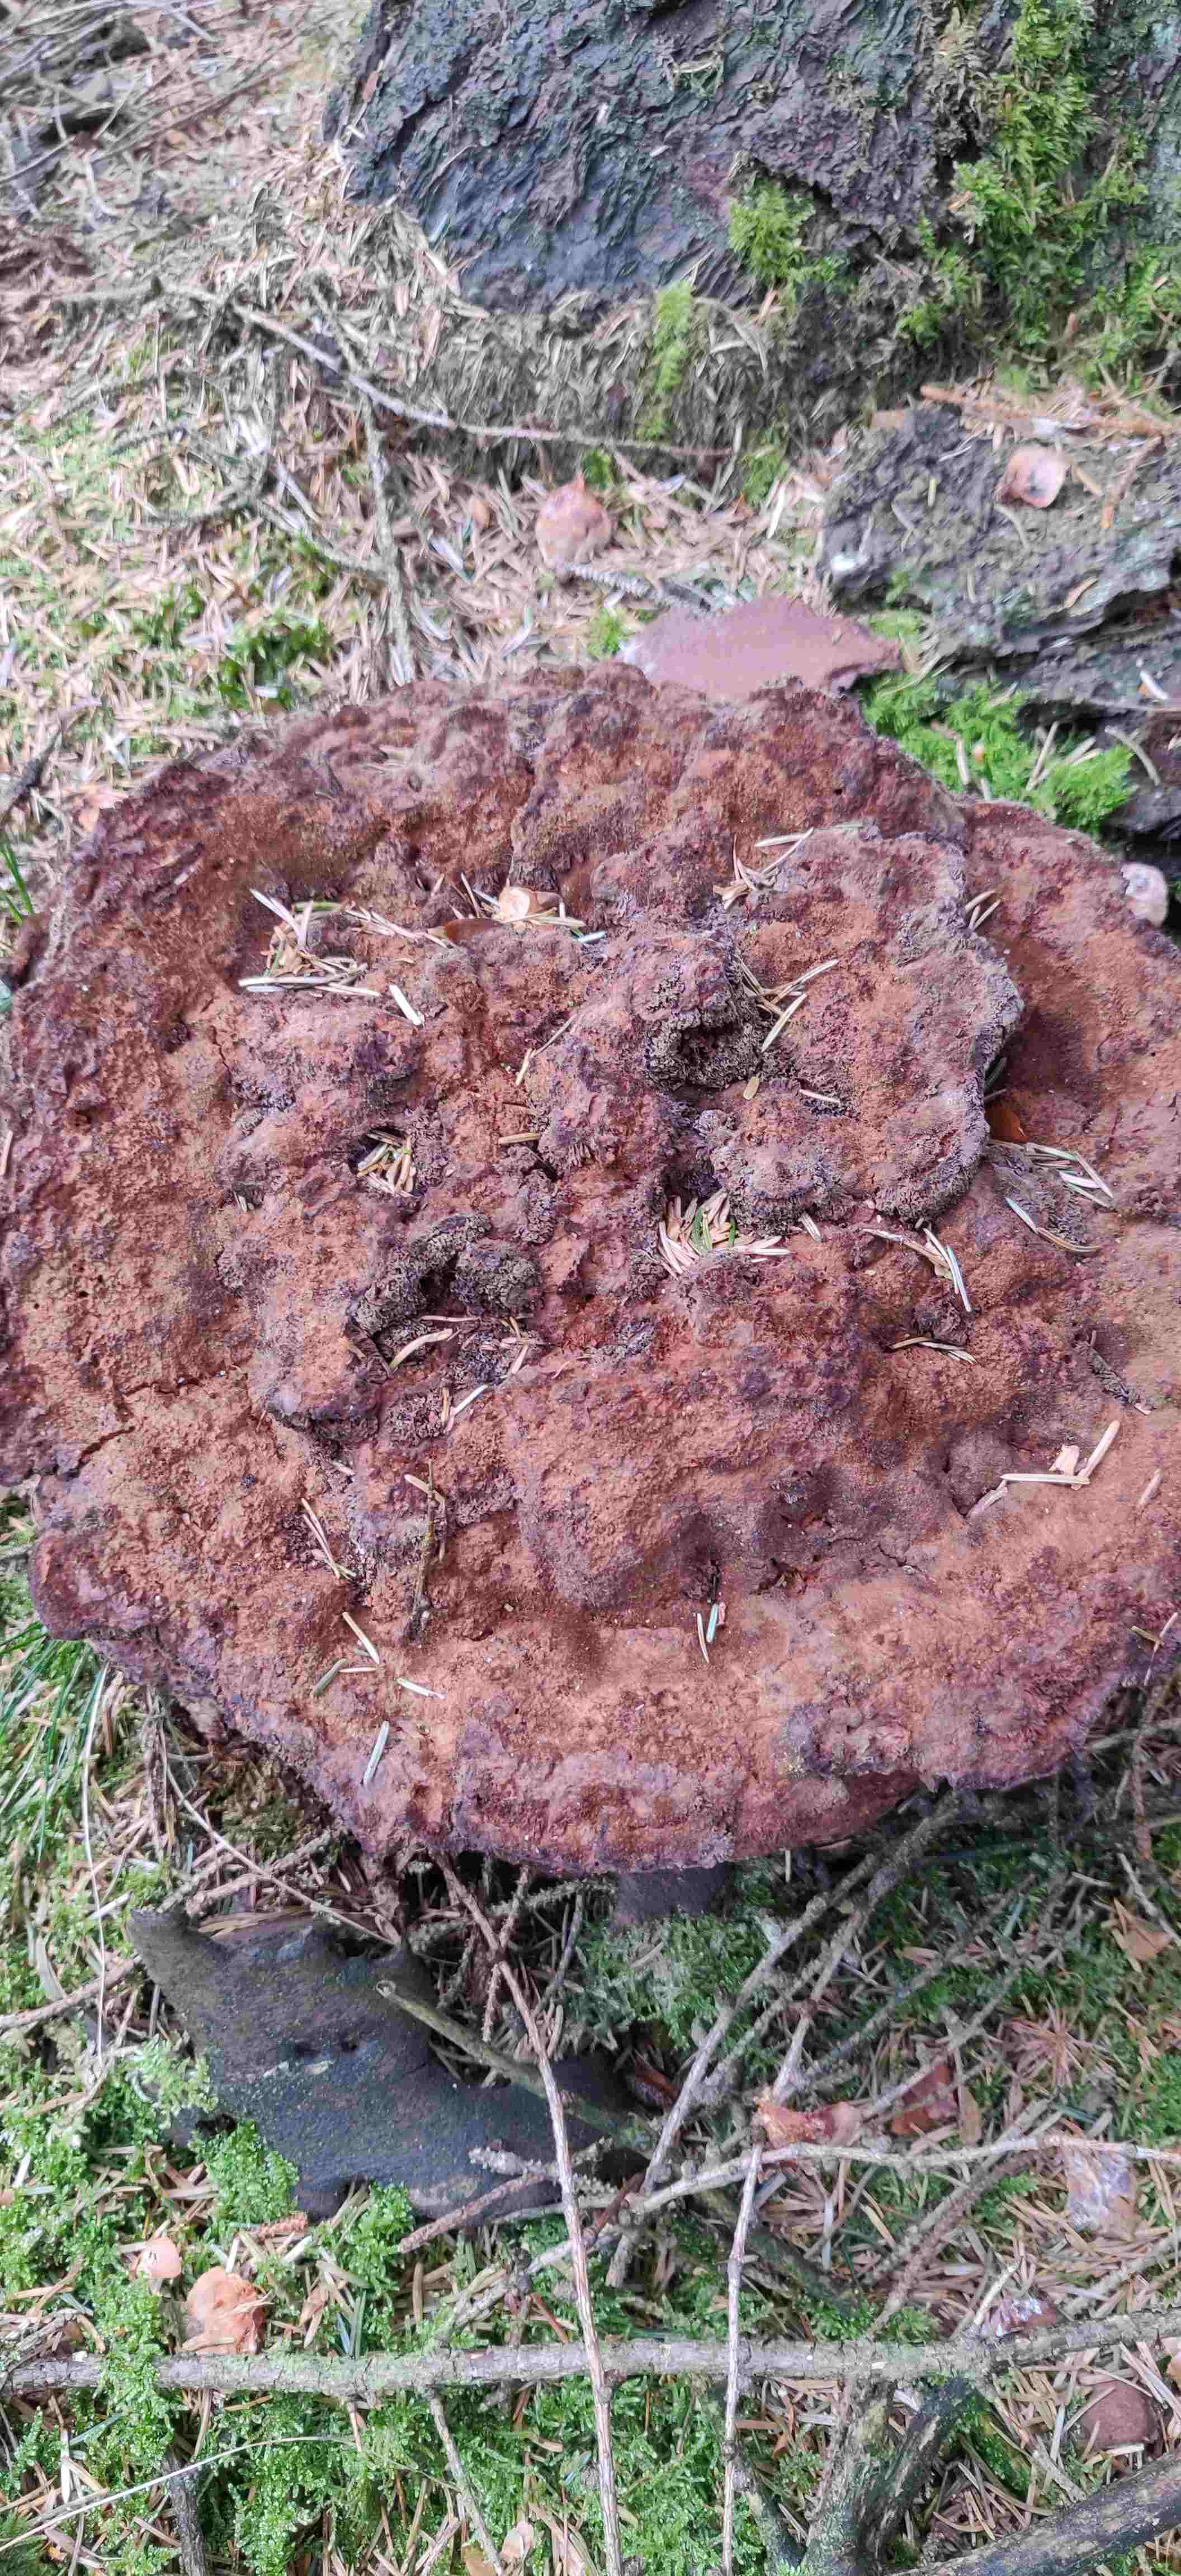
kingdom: Fungi
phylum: Basidiomycota
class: Agaricomycetes
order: Polyporales
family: Laetiporaceae
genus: Phaeolus
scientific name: Phaeolus schweinitzii
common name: brunporesvamp
